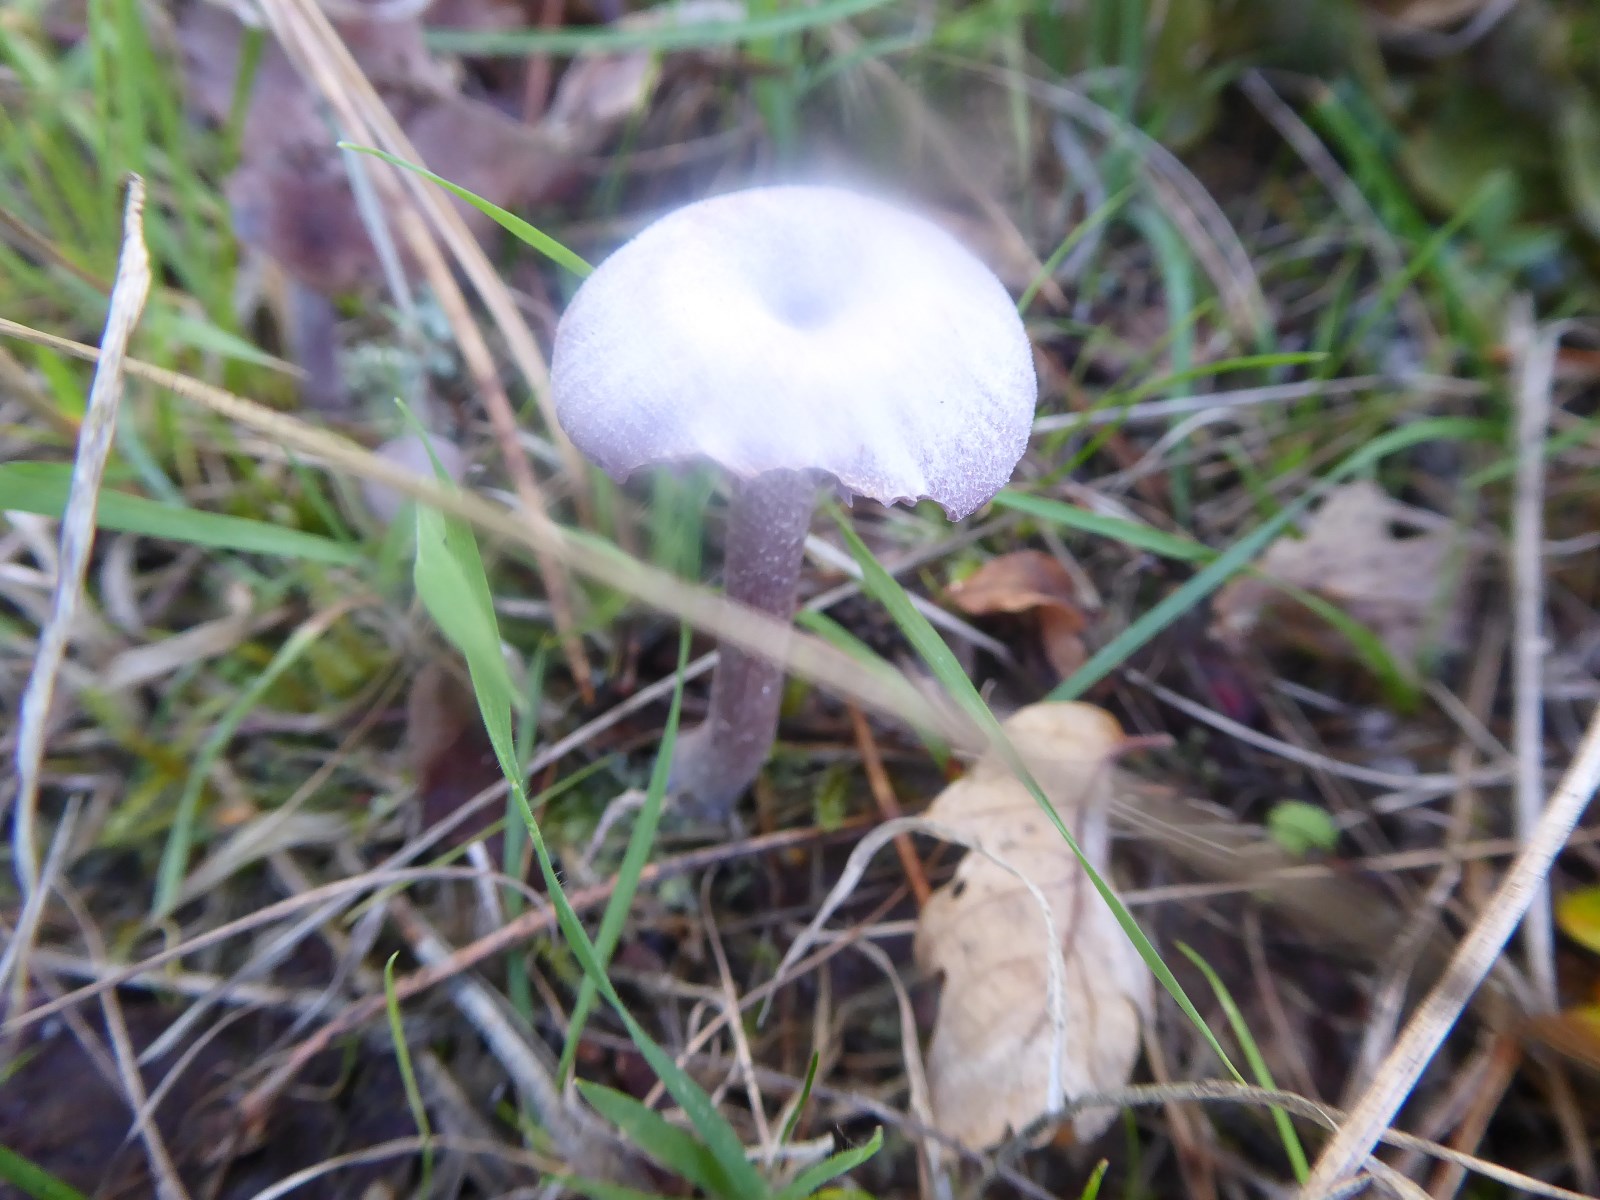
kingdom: Fungi
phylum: Basidiomycota
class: Agaricomycetes
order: Agaricales
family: Hydnangiaceae
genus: Laccaria
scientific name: Laccaria amethystina
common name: violet ametysthat
